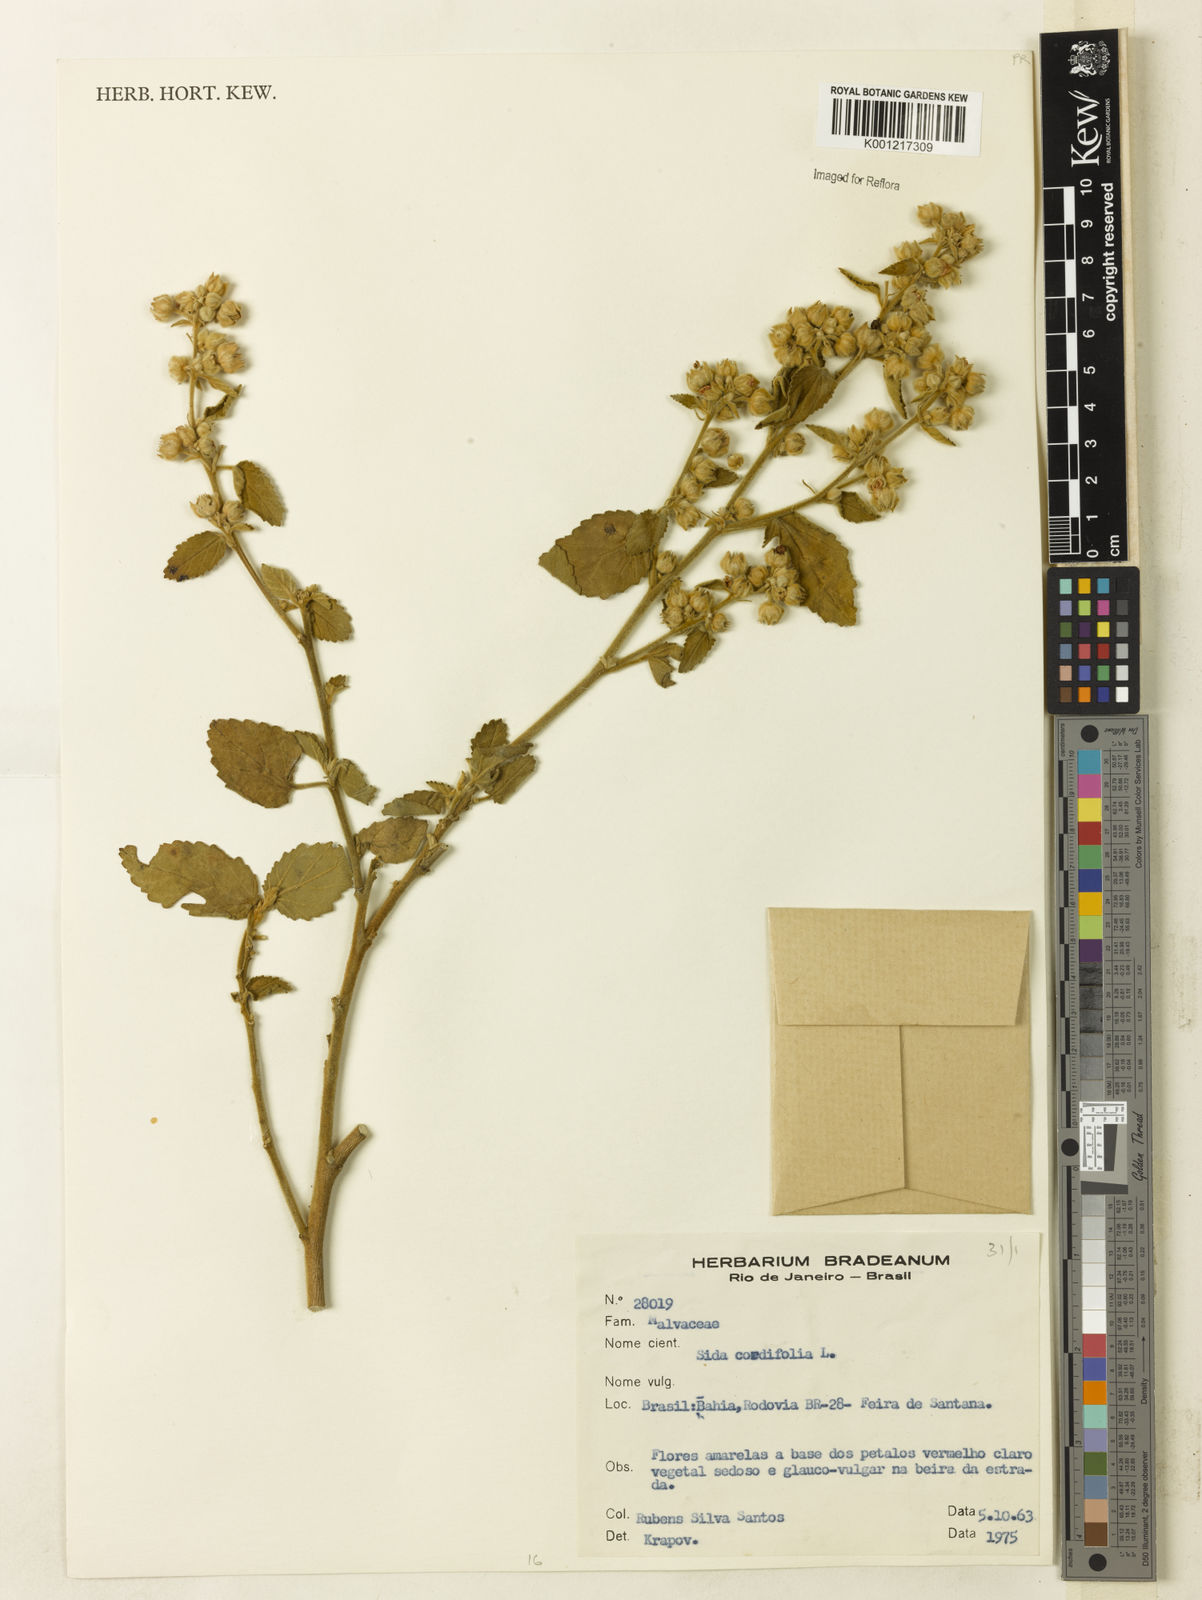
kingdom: Plantae
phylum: Tracheophyta
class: Magnoliopsida
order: Malvales
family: Malvaceae
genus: Sida
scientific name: Sida cordifolia
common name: Ilima
